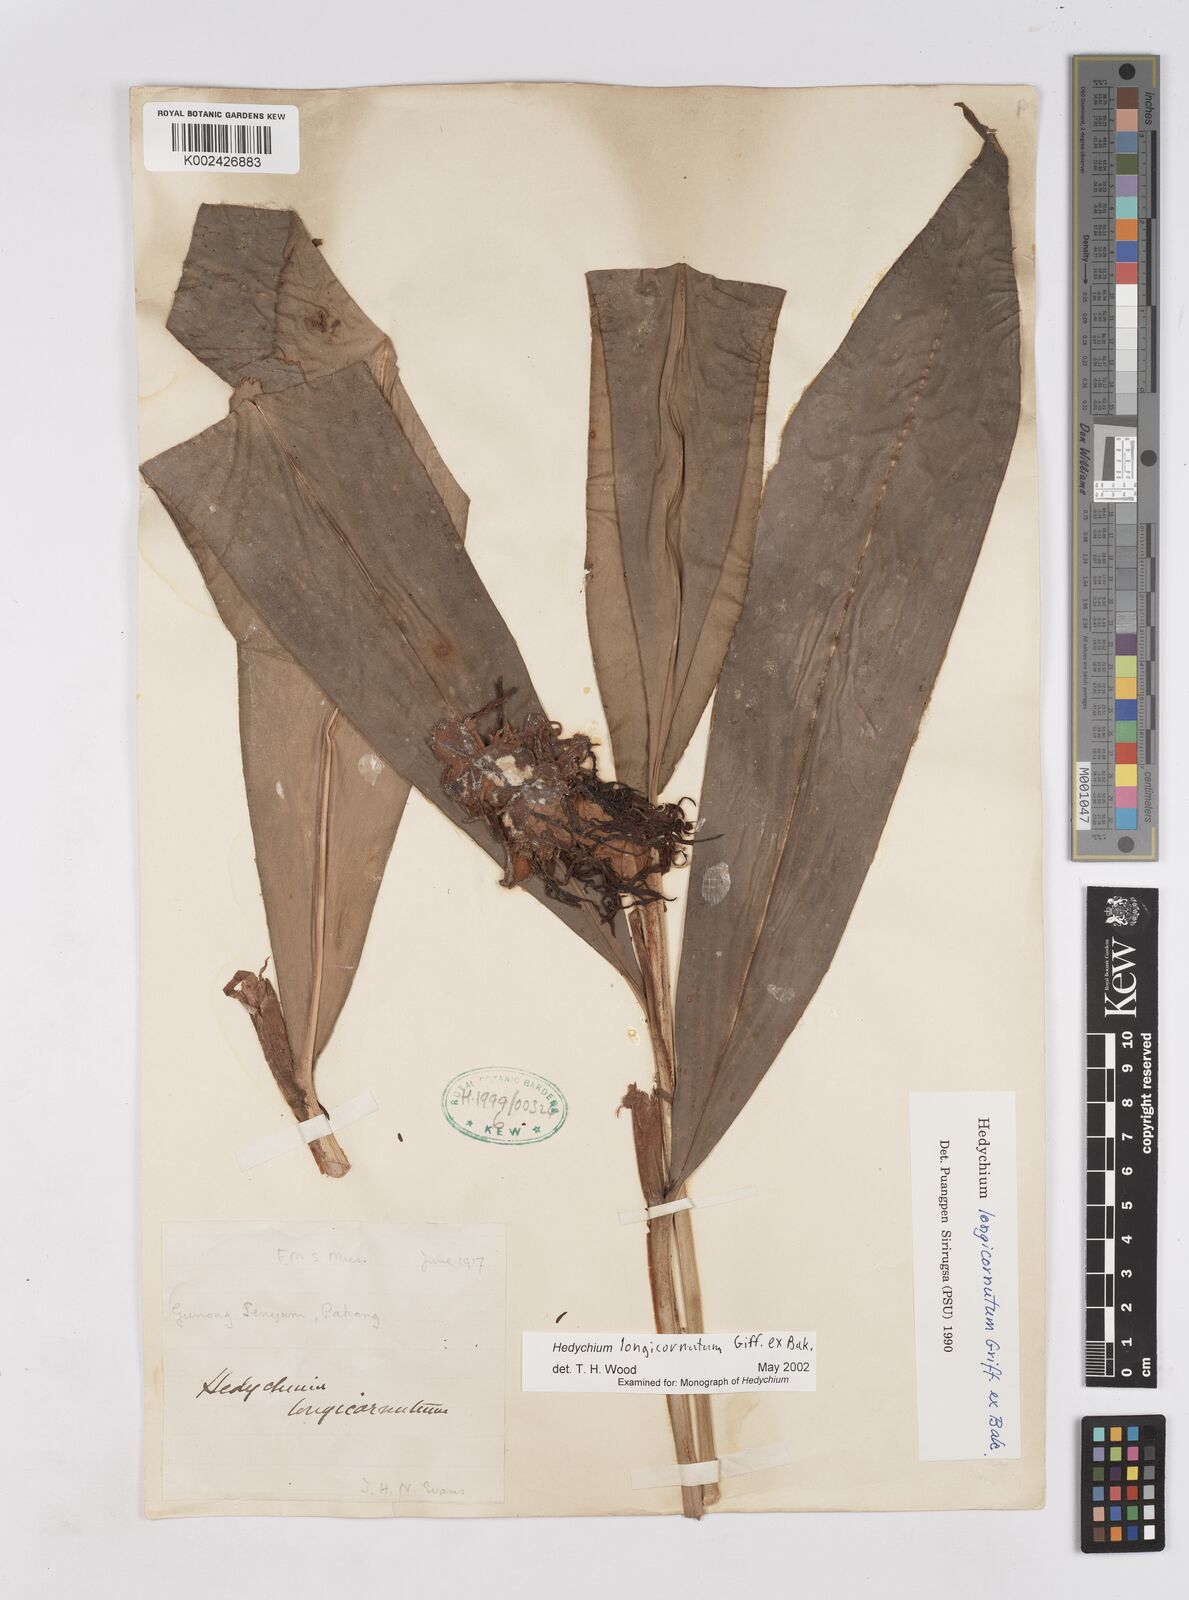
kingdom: Plantae
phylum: Tracheophyta
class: Liliopsida
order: Zingiberales
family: Zingiberaceae
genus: Hedychium
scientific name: Hedychium longicornutum
